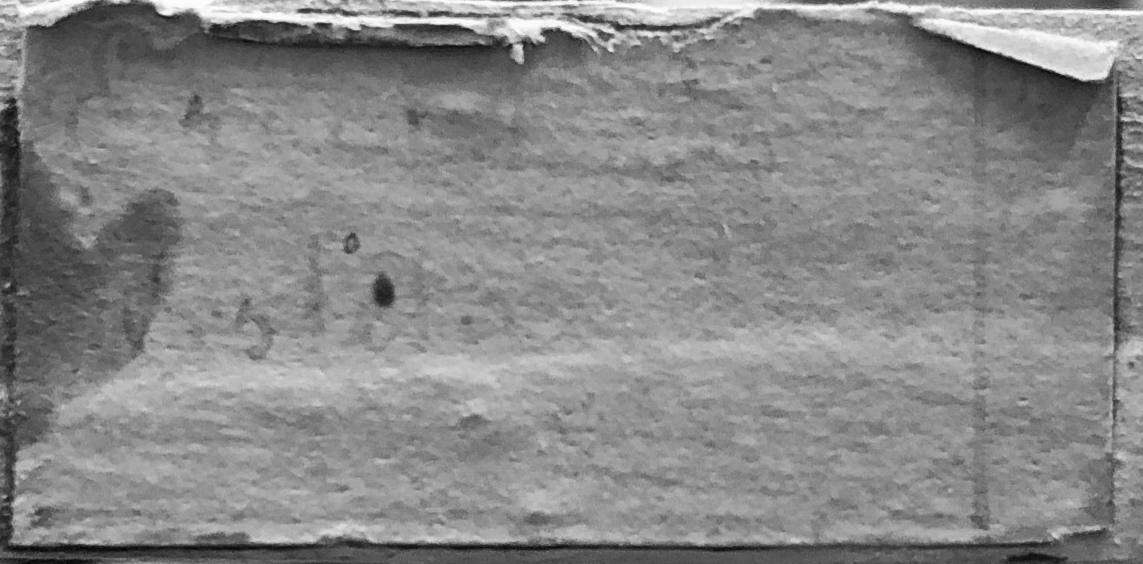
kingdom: Animalia
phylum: Chordata
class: Aves
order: Apodiformes
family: Trochilidae
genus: Eriocnemis
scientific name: Eriocnemis vestita
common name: Glowing puffleg
